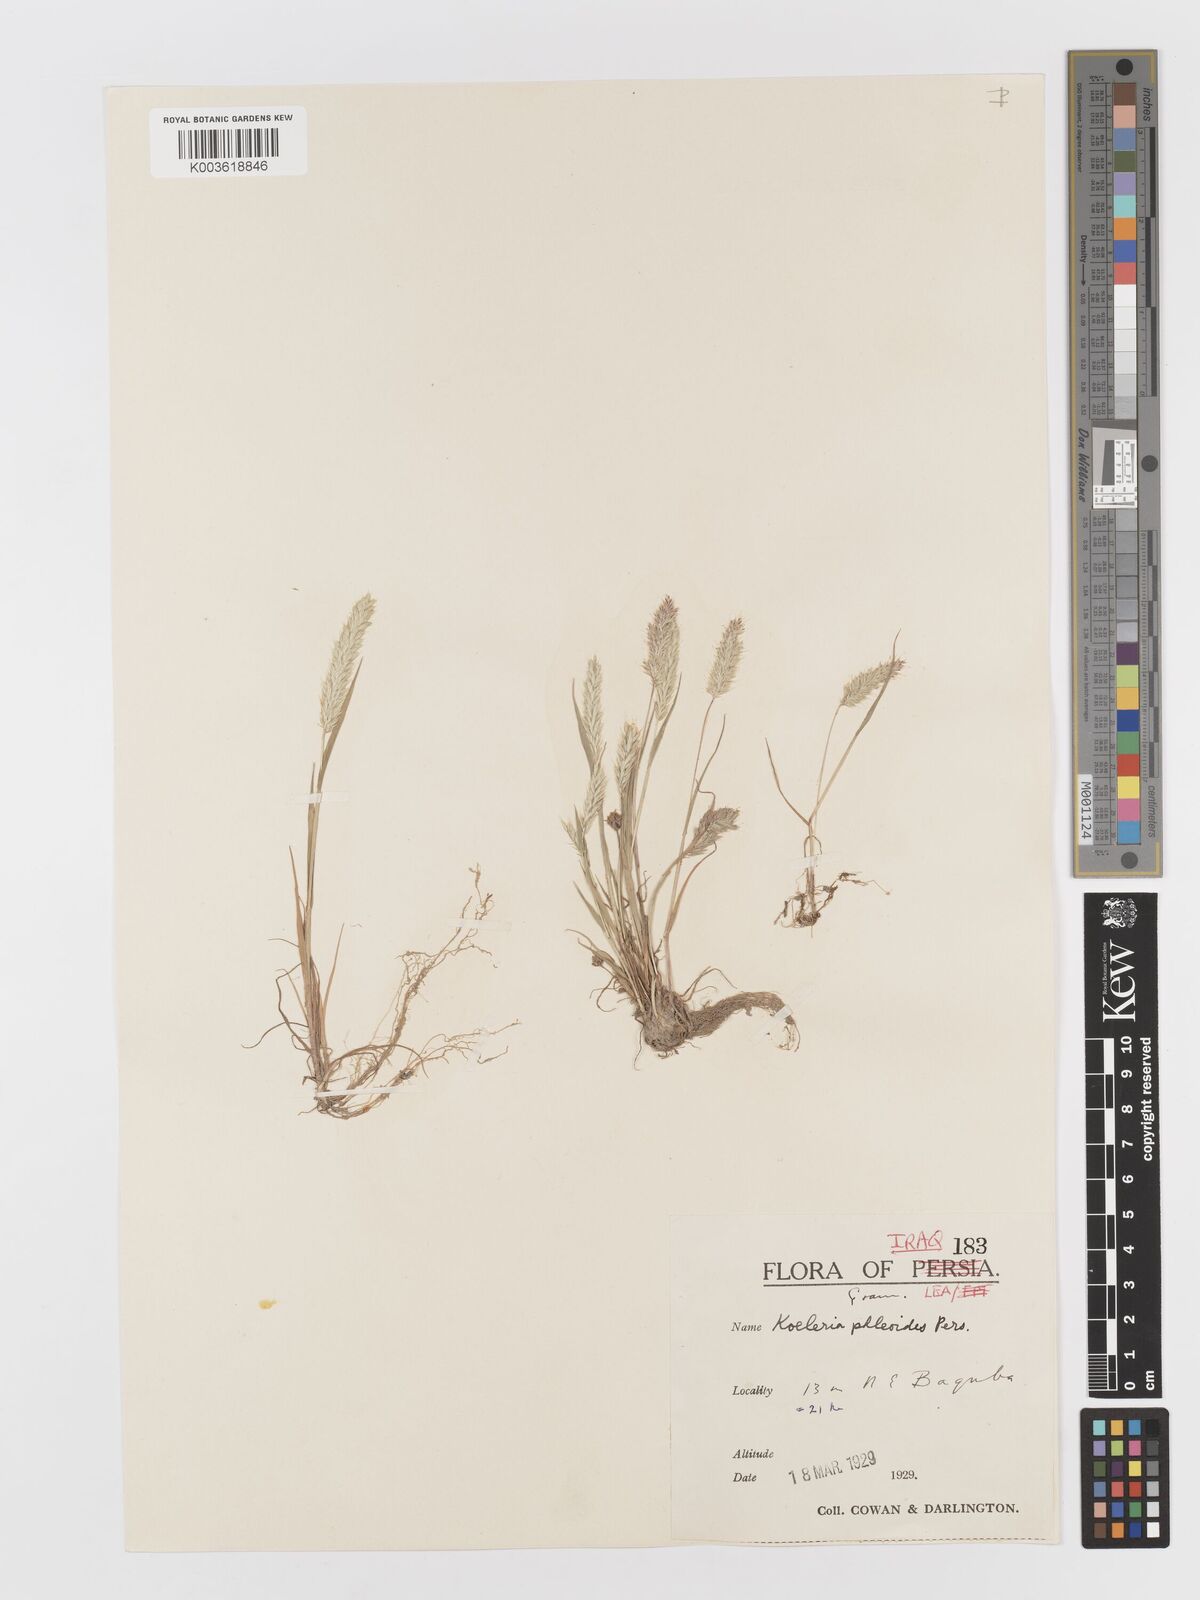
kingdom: Plantae
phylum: Tracheophyta
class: Liliopsida
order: Poales
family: Poaceae
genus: Rostraria
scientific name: Rostraria cristata
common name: Mediterranean hair-grass
